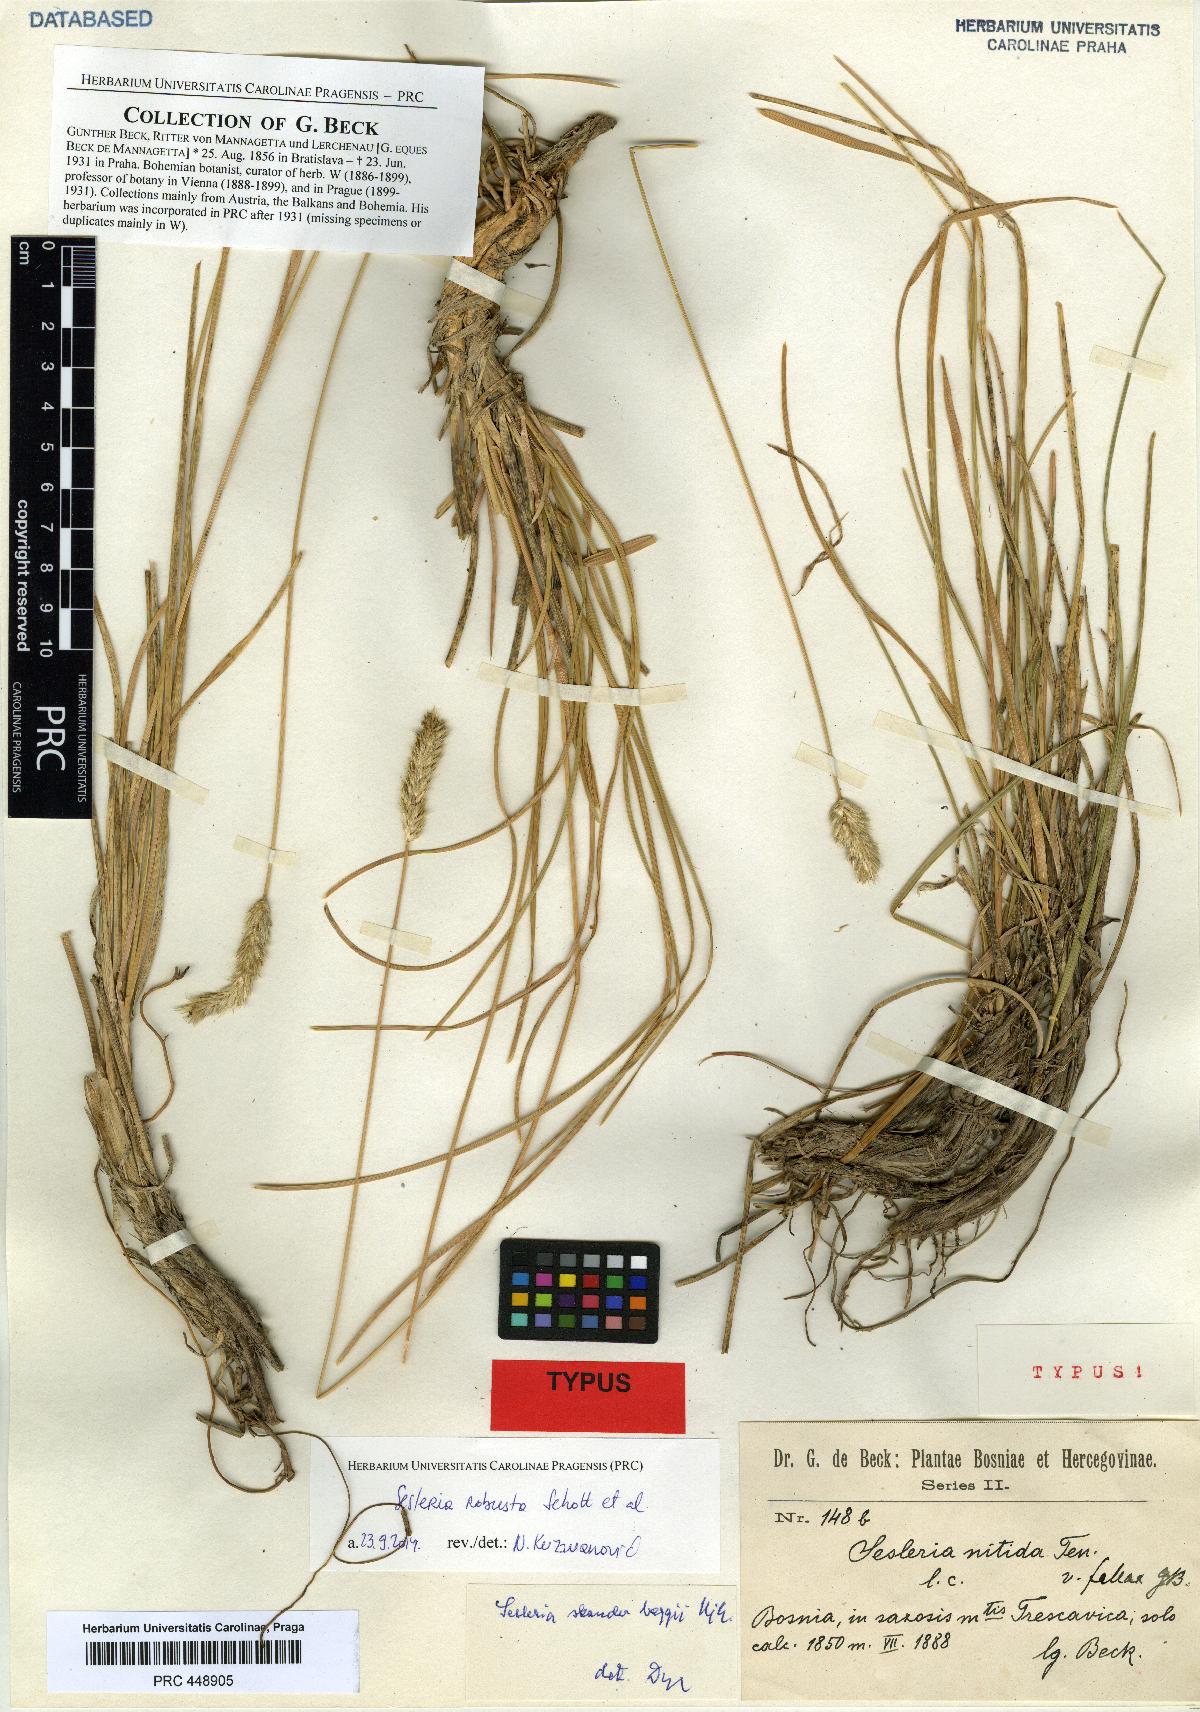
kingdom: Plantae
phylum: Tracheophyta
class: Liliopsida
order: Poales
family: Poaceae
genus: Sesleria
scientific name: Sesleria nitida
